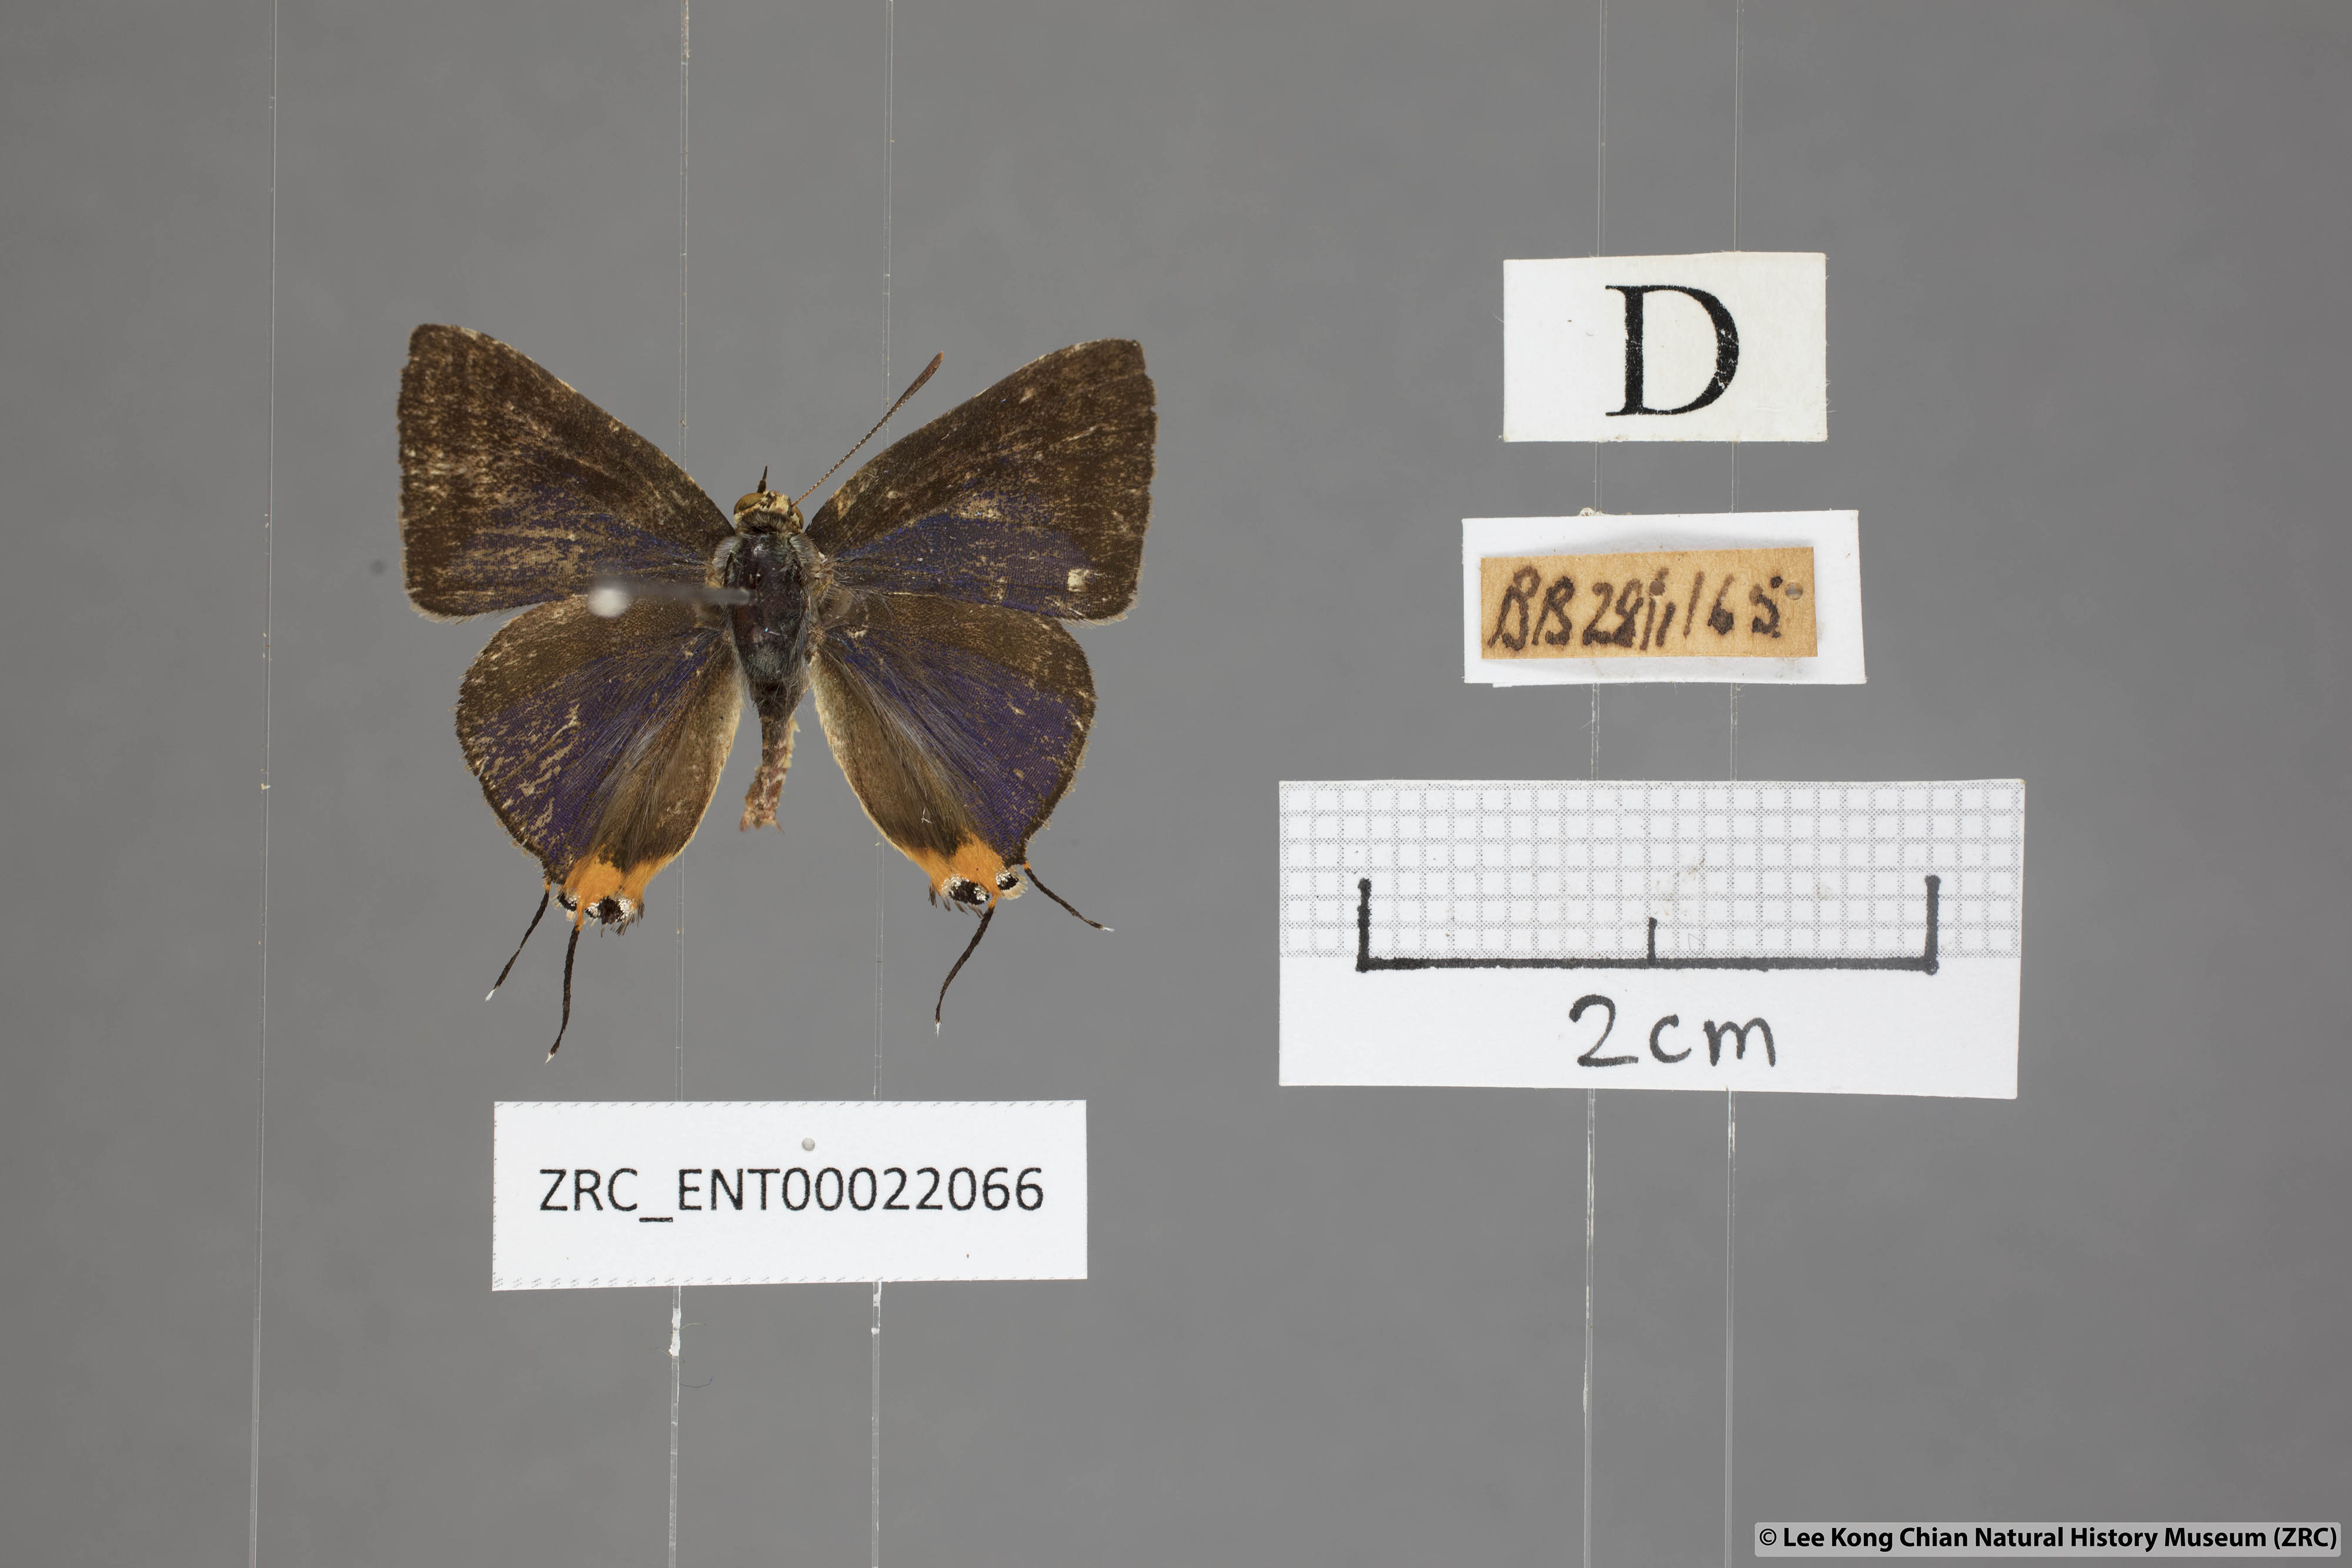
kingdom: Animalia
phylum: Arthropoda
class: Insecta
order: Lepidoptera
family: Lycaenidae
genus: Spindasis
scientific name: Spindasis lohita
